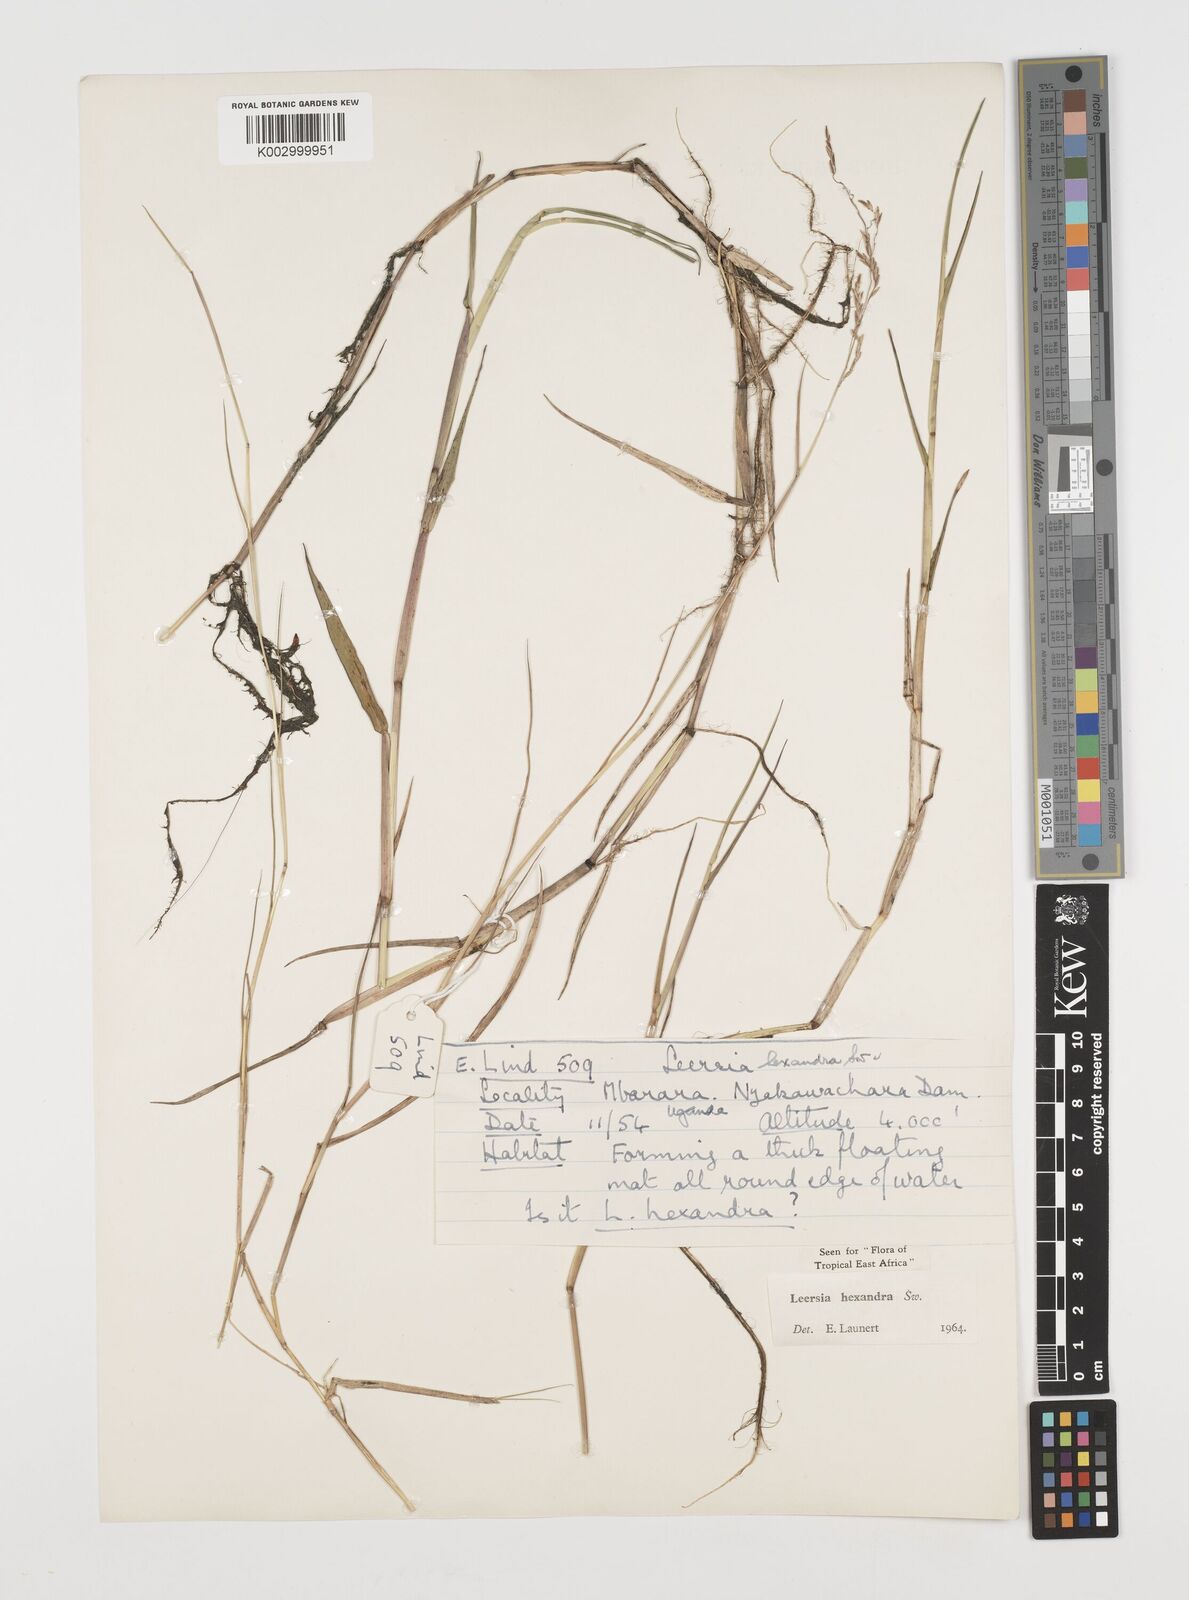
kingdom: Plantae
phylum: Tracheophyta
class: Liliopsida
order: Poales
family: Poaceae
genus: Leersia
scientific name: Leersia hexandra
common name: Southern cut grass
